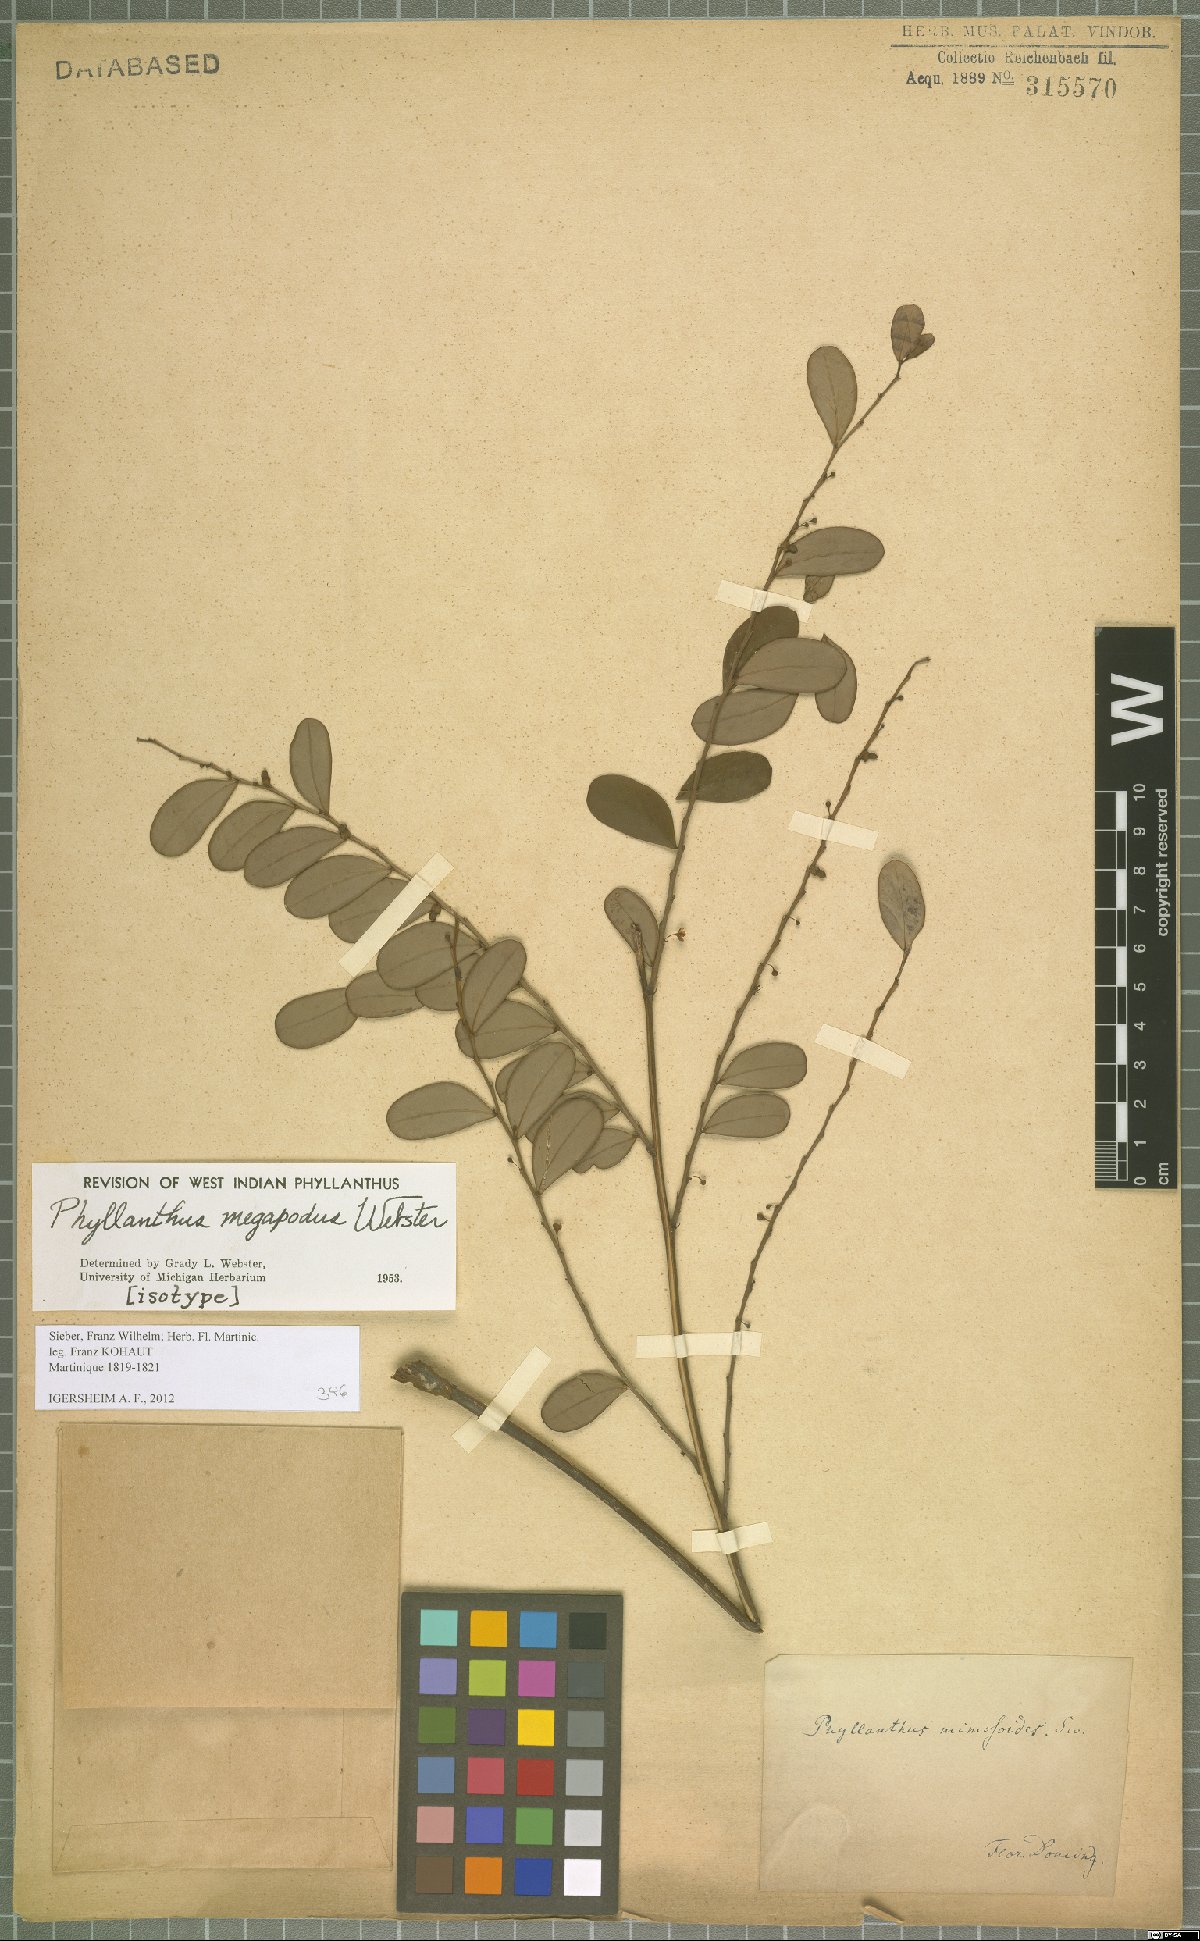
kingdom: Plantae
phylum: Tracheophyta
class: Magnoliopsida
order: Malpighiales
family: Phyllanthaceae
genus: Phyllanthus
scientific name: Phyllanthus megapodus
